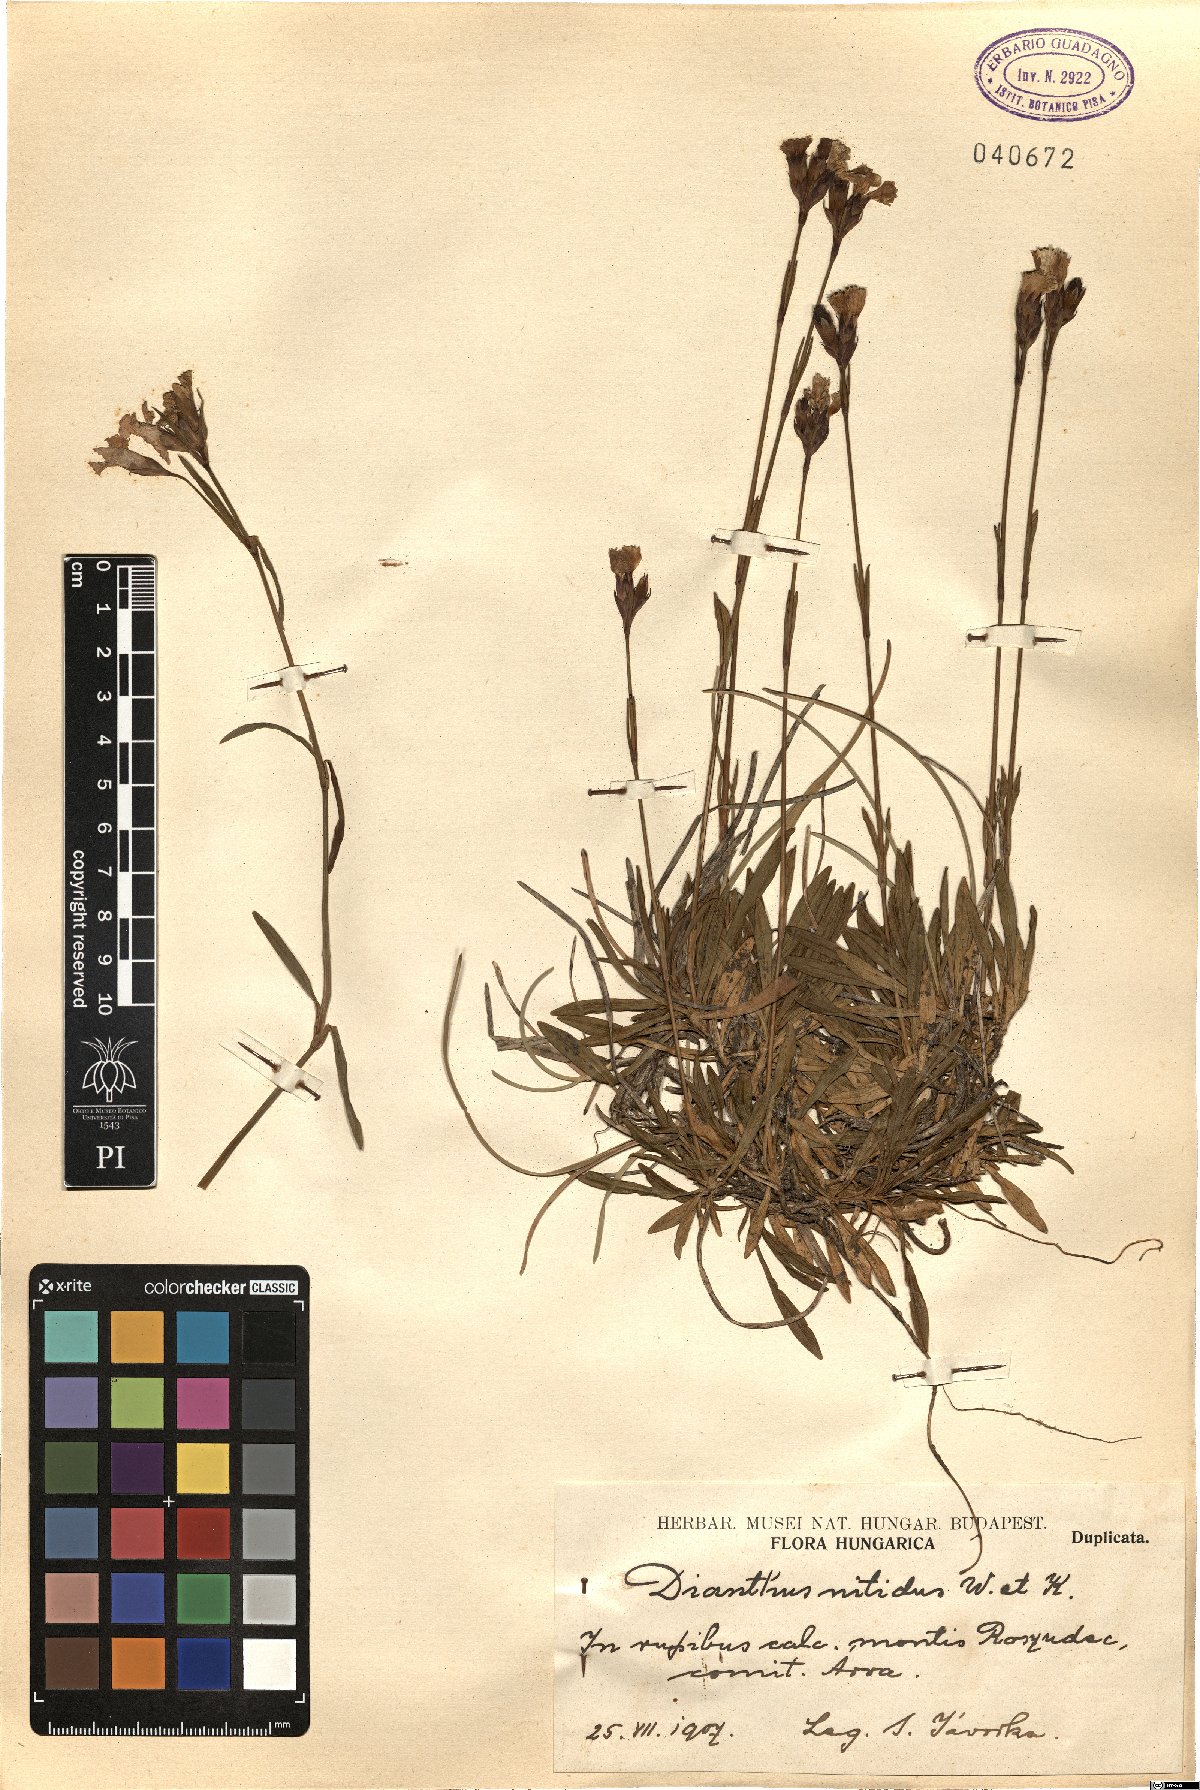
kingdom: Plantae
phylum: Tracheophyta
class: Magnoliopsida
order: Caryophyllales
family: Caryophyllaceae
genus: Dianthus
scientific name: Dianthus nitidus
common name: Carpathian glossy pink
